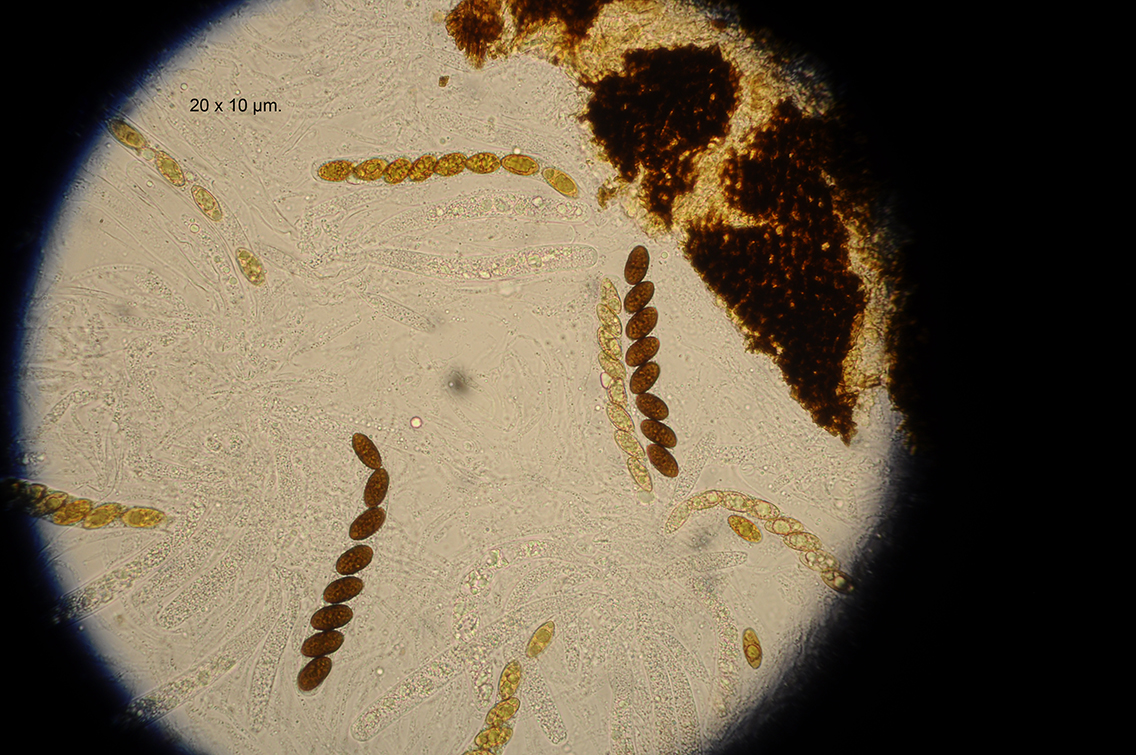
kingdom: Fungi
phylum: Ascomycota
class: Sordariomycetes
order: Amphisphaeriales
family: Amphisphaeriaceae
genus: Amphisphaerella
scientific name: Amphisphaerella xylostei
